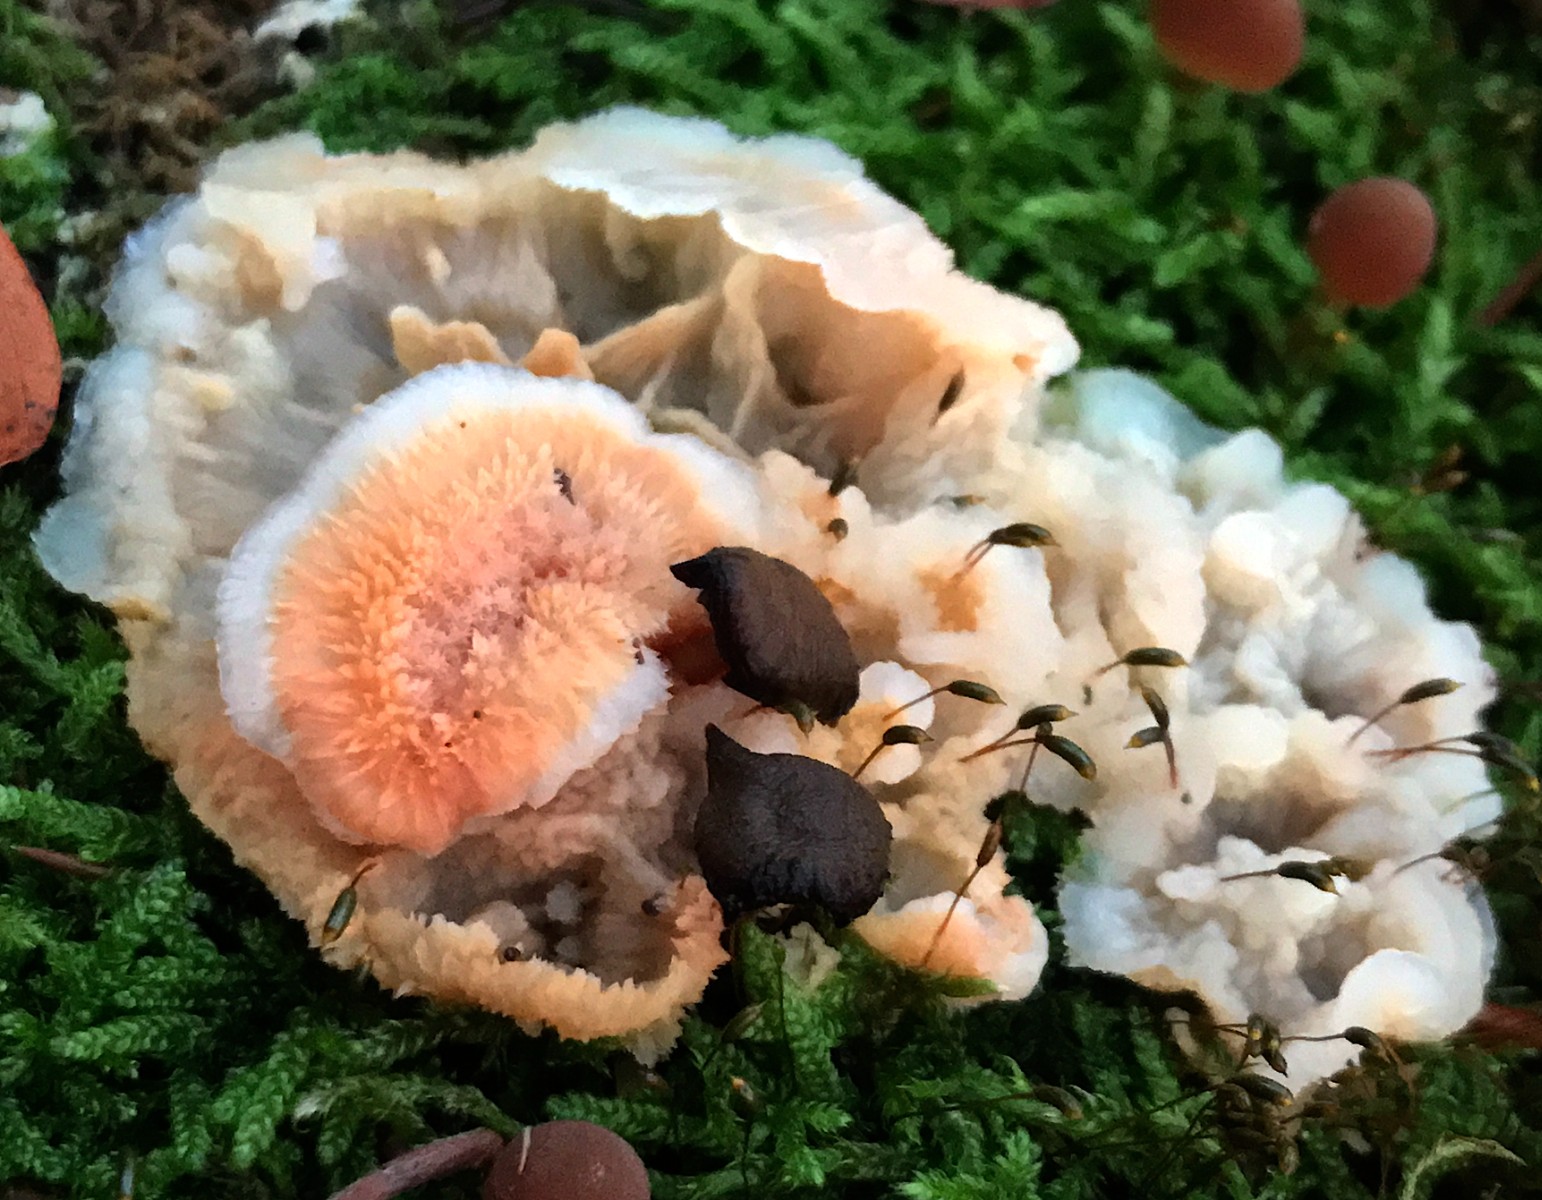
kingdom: Fungi
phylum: Basidiomycota
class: Agaricomycetes
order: Polyporales
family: Meruliaceae
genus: Phlebia
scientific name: Phlebia tremellosa
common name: bævrende åresvamp
